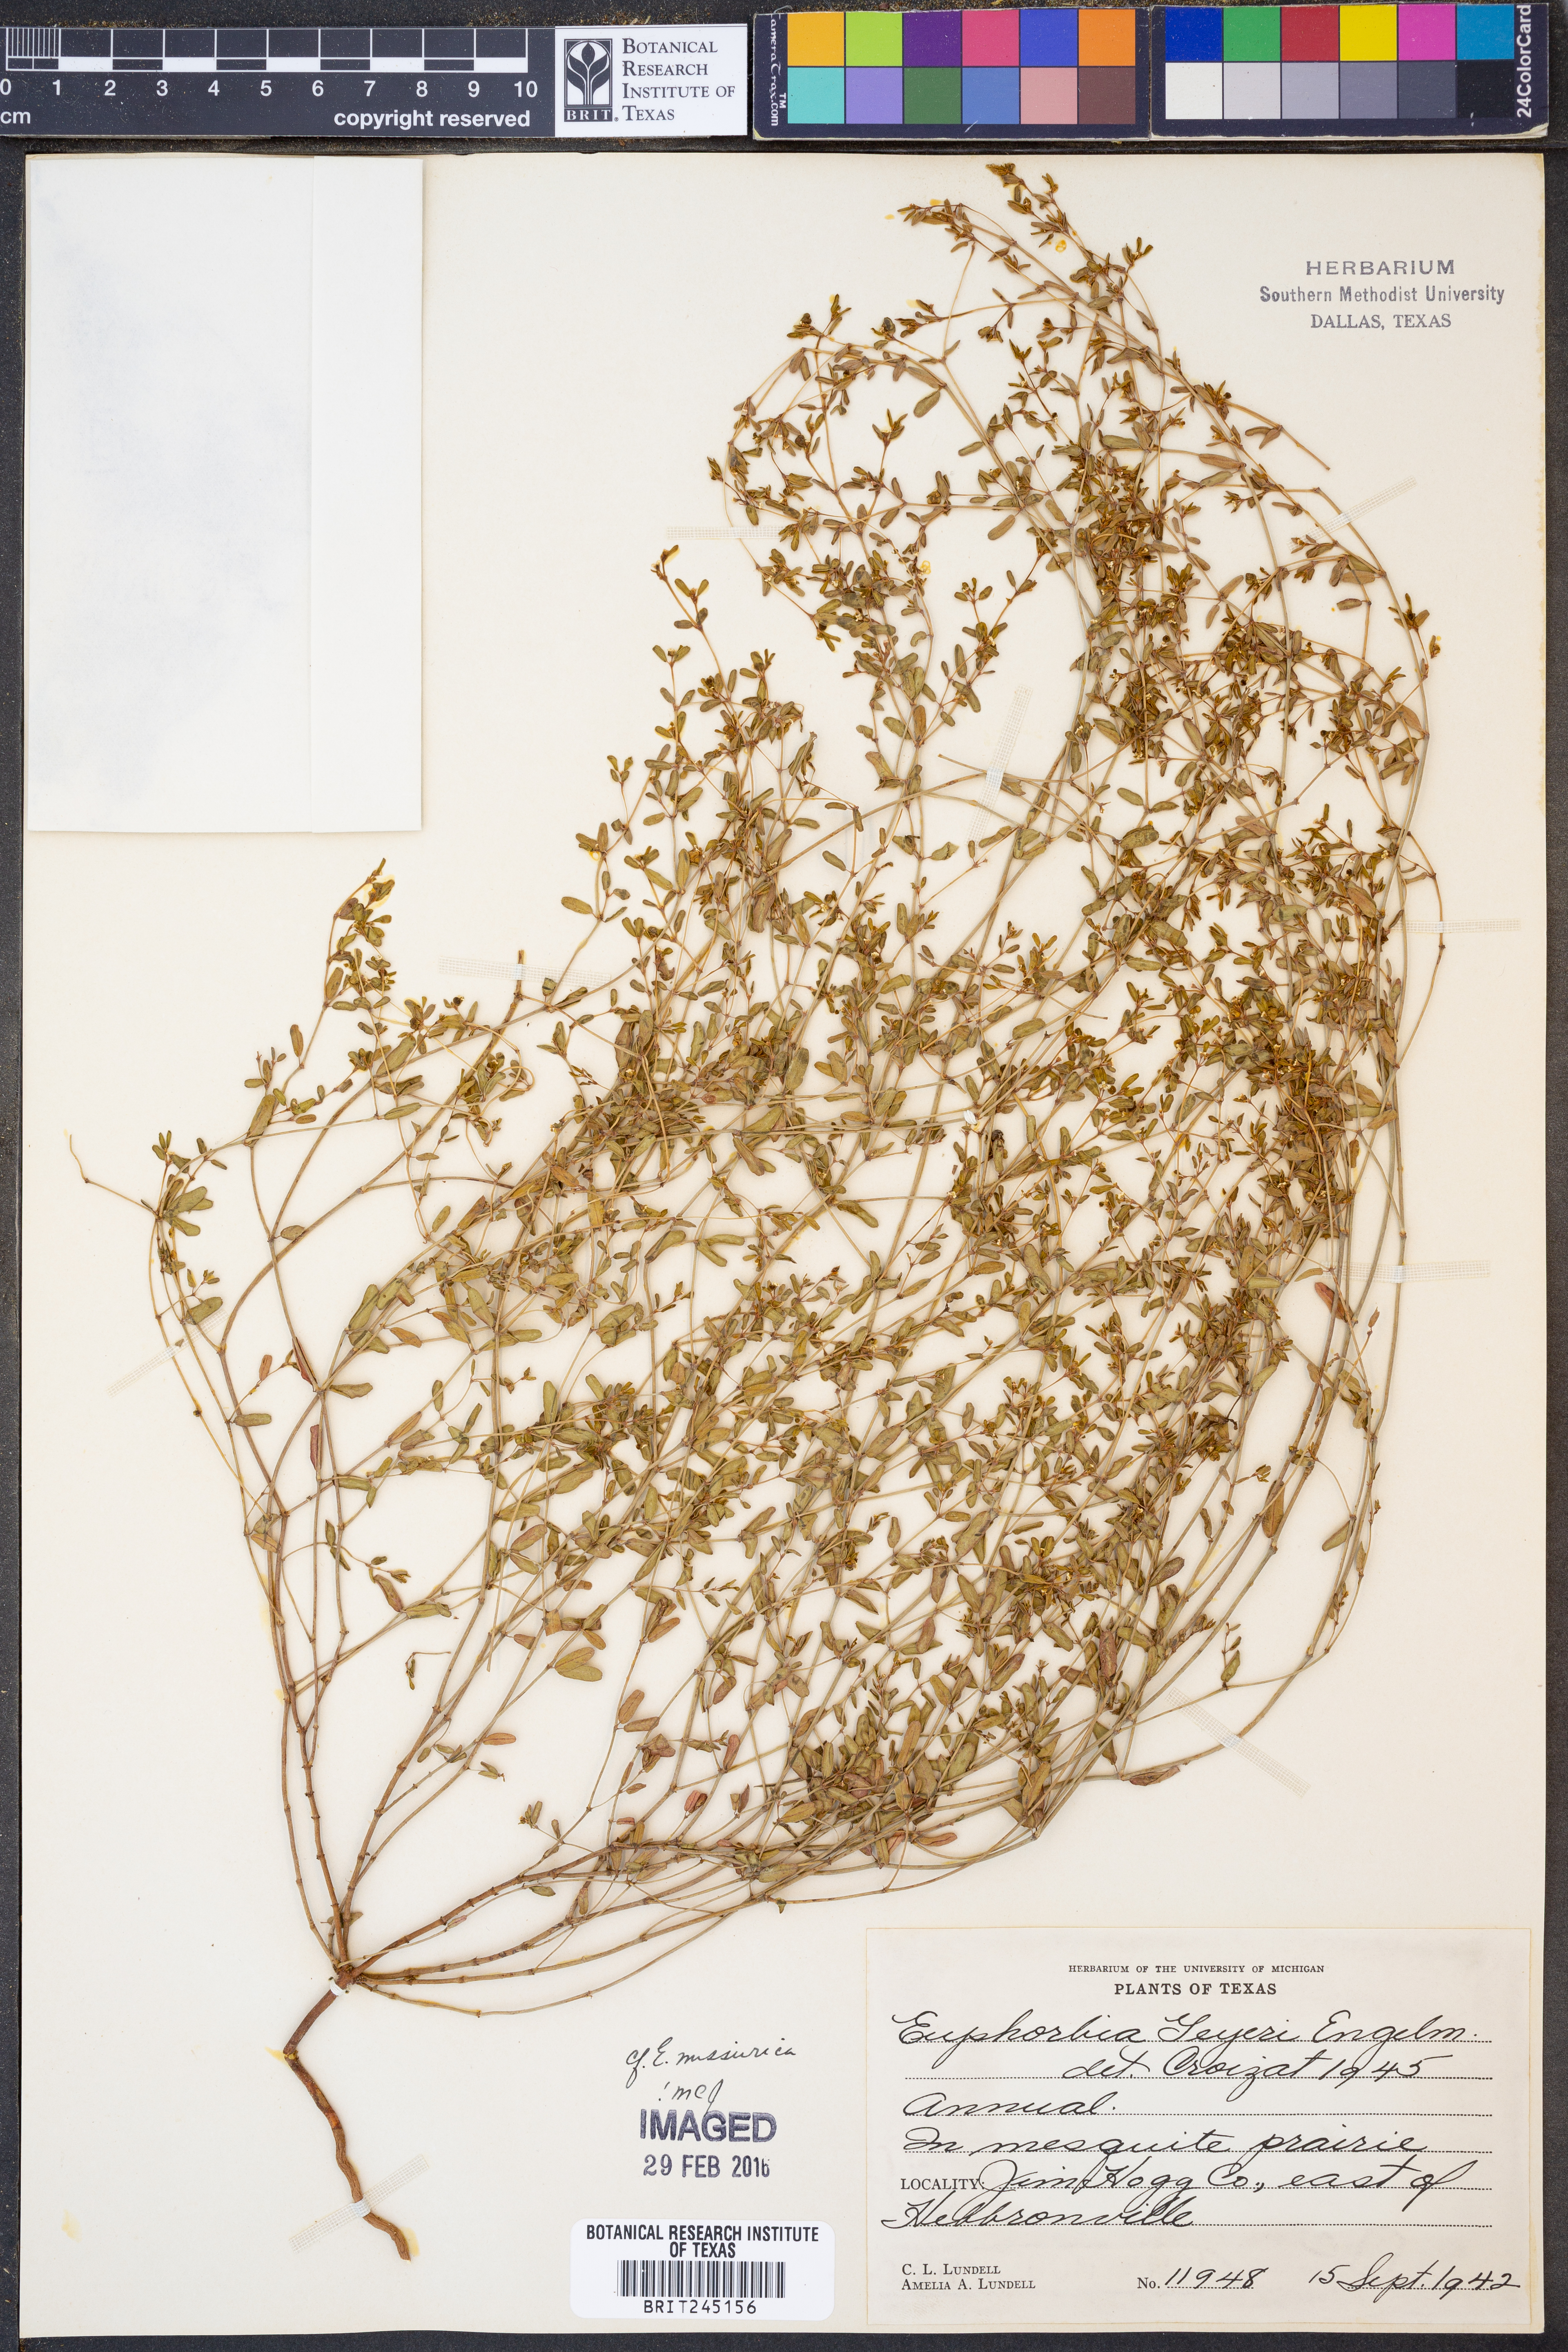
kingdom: Plantae
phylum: Tracheophyta
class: Magnoliopsida
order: Malpighiales
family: Euphorbiaceae
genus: Euphorbia
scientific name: Euphorbia geyeri
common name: Geyer's spurge
